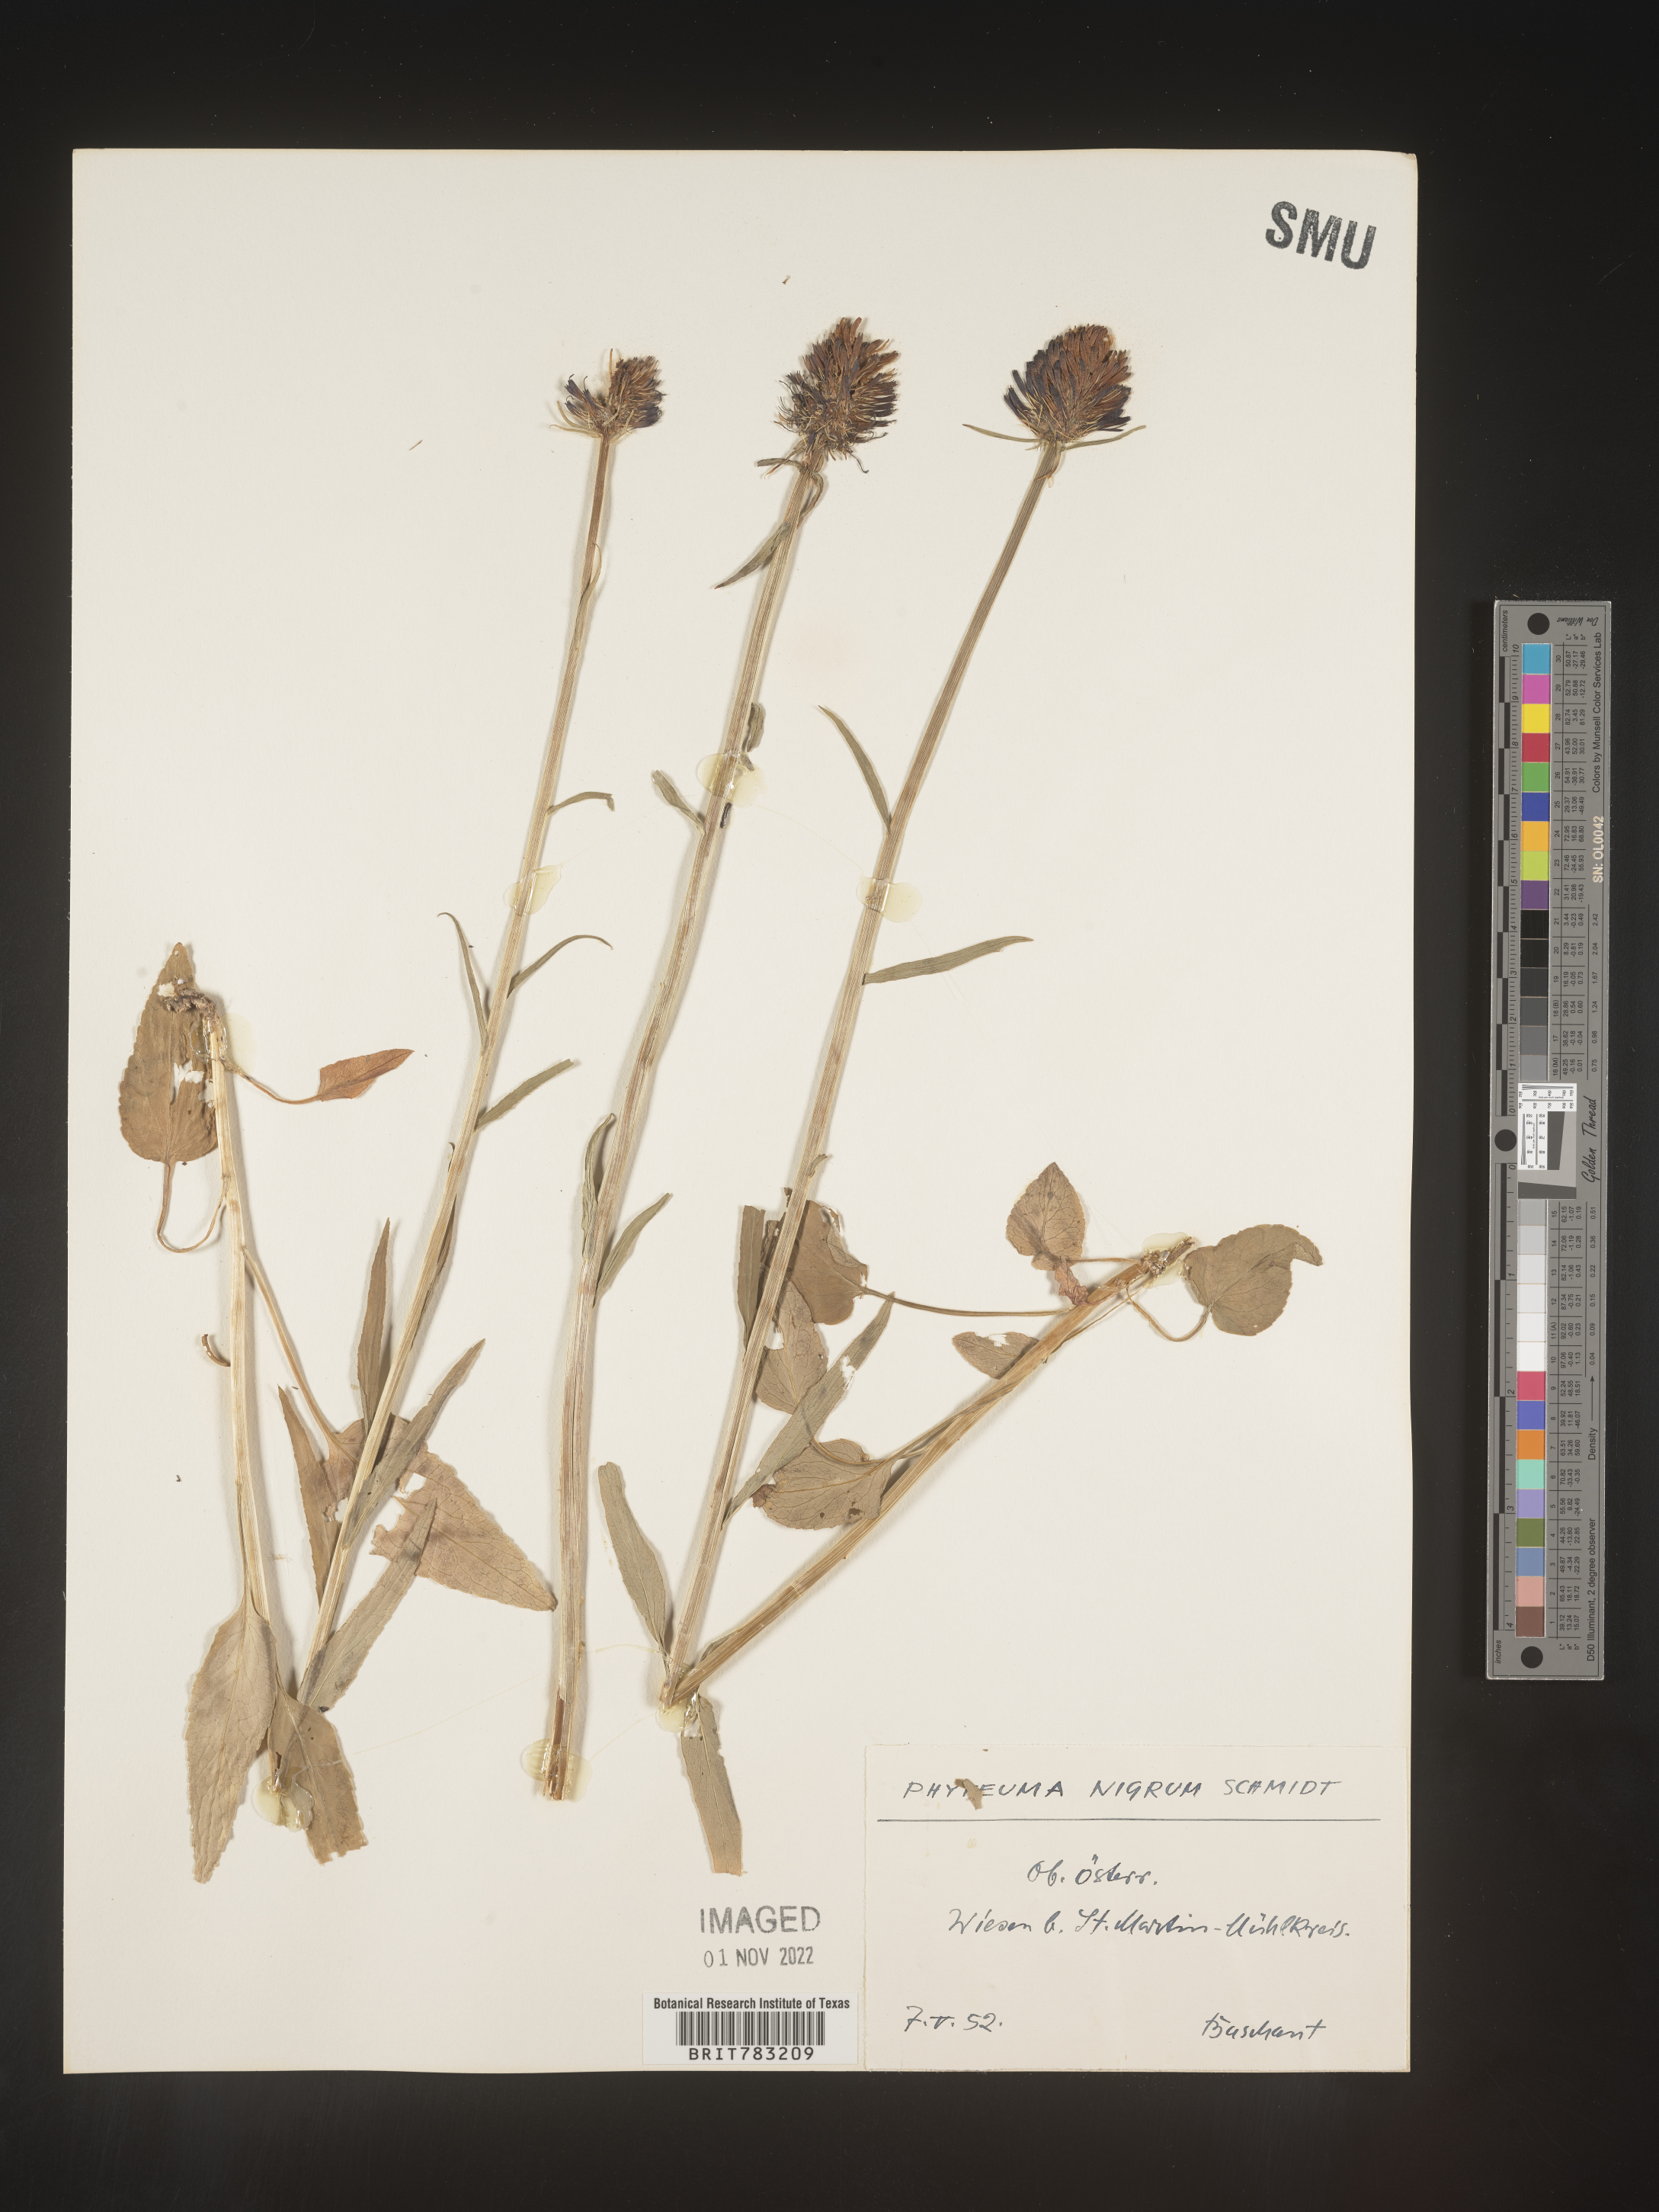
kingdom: Plantae
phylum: Tracheophyta
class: Magnoliopsida
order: Asterales
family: Campanulaceae
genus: Phyteuma
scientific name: Phyteuma
